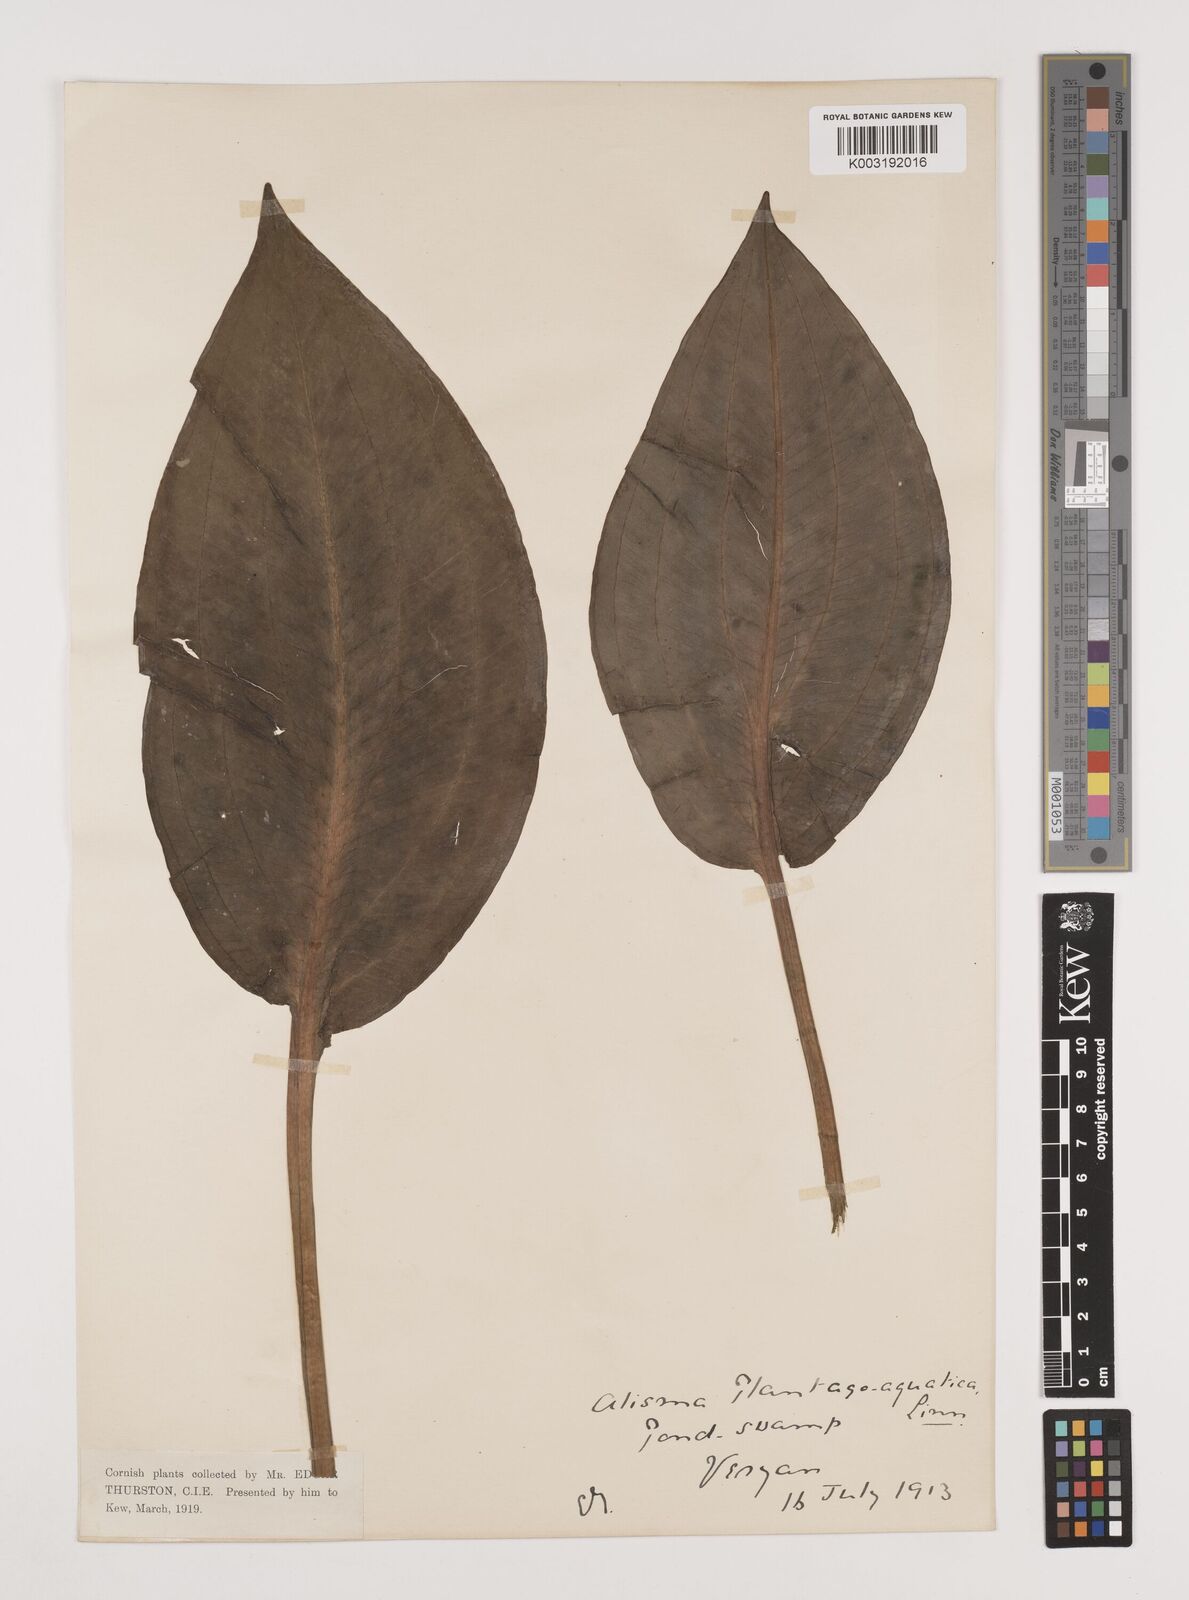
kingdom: Plantae
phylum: Tracheophyta
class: Liliopsida
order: Alismatales
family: Alismataceae
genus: Alisma
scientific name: Alisma plantago-aquatica
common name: Water-plantain
